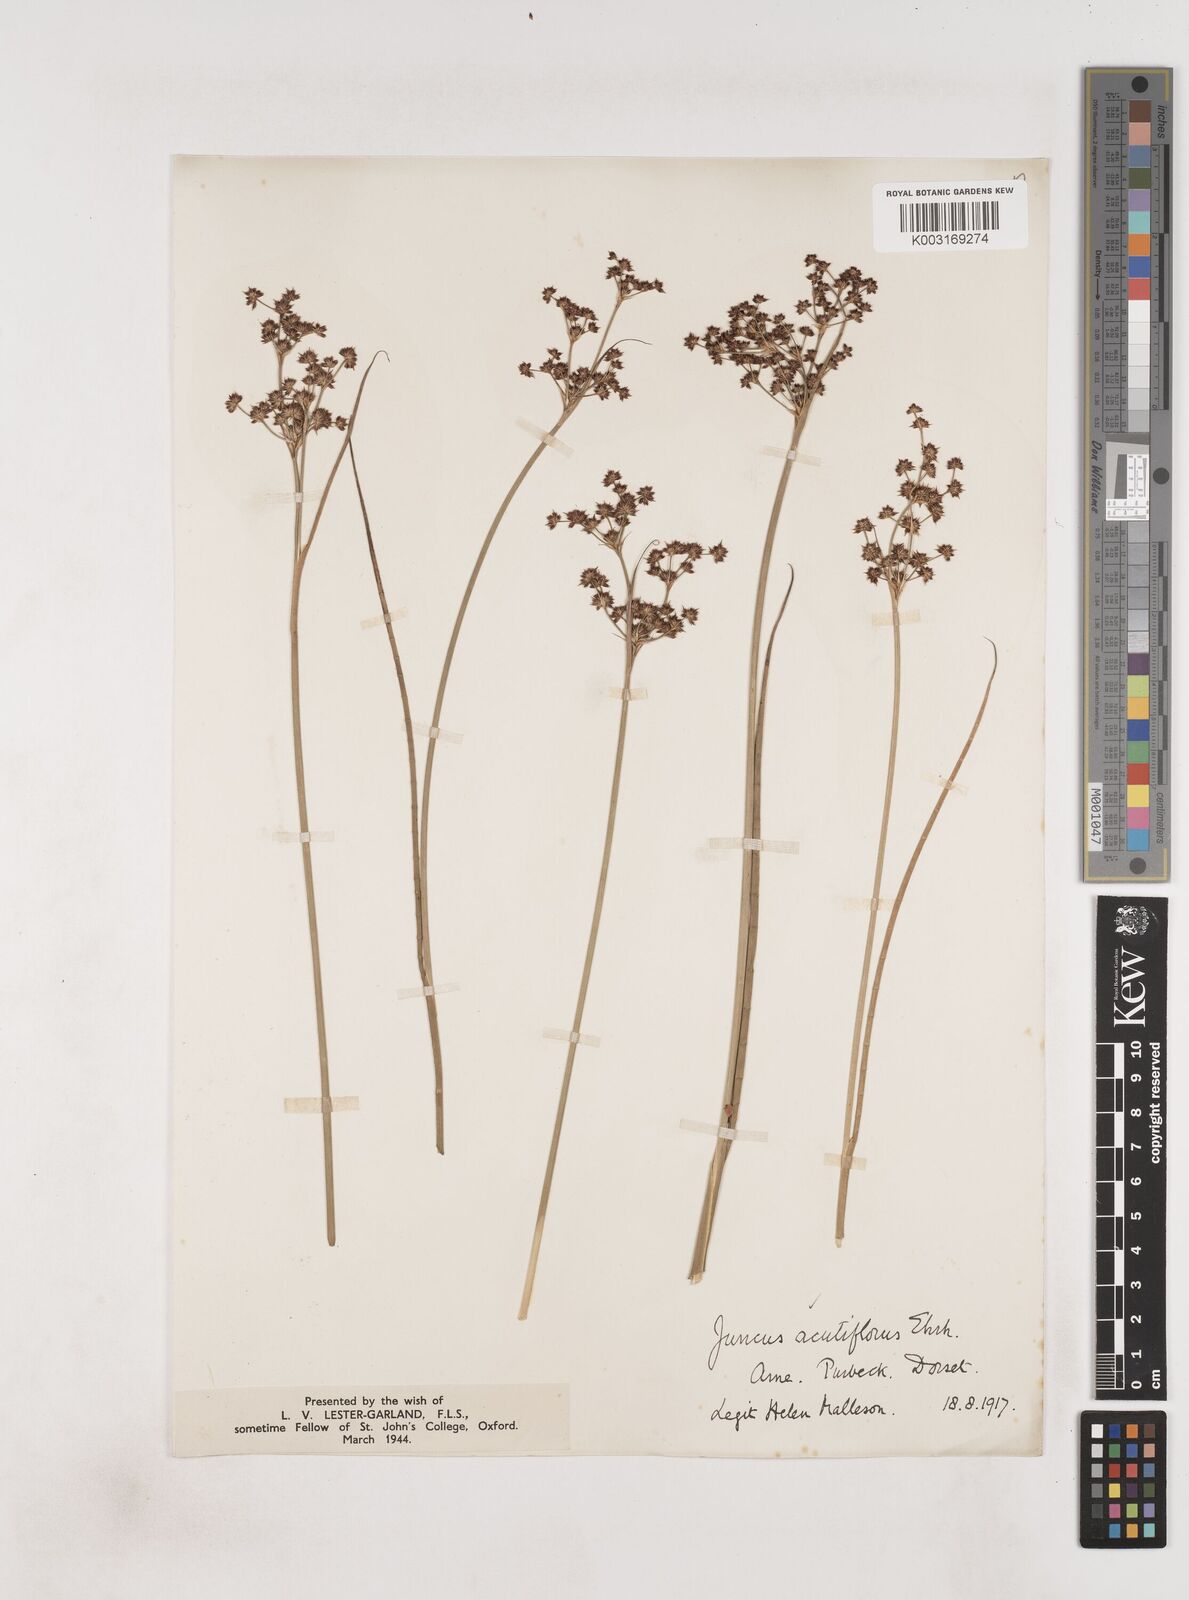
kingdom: Plantae
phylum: Tracheophyta
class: Liliopsida
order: Poales
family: Juncaceae
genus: Juncus
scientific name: Juncus acutiflorus
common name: Sharp-flowered rush
